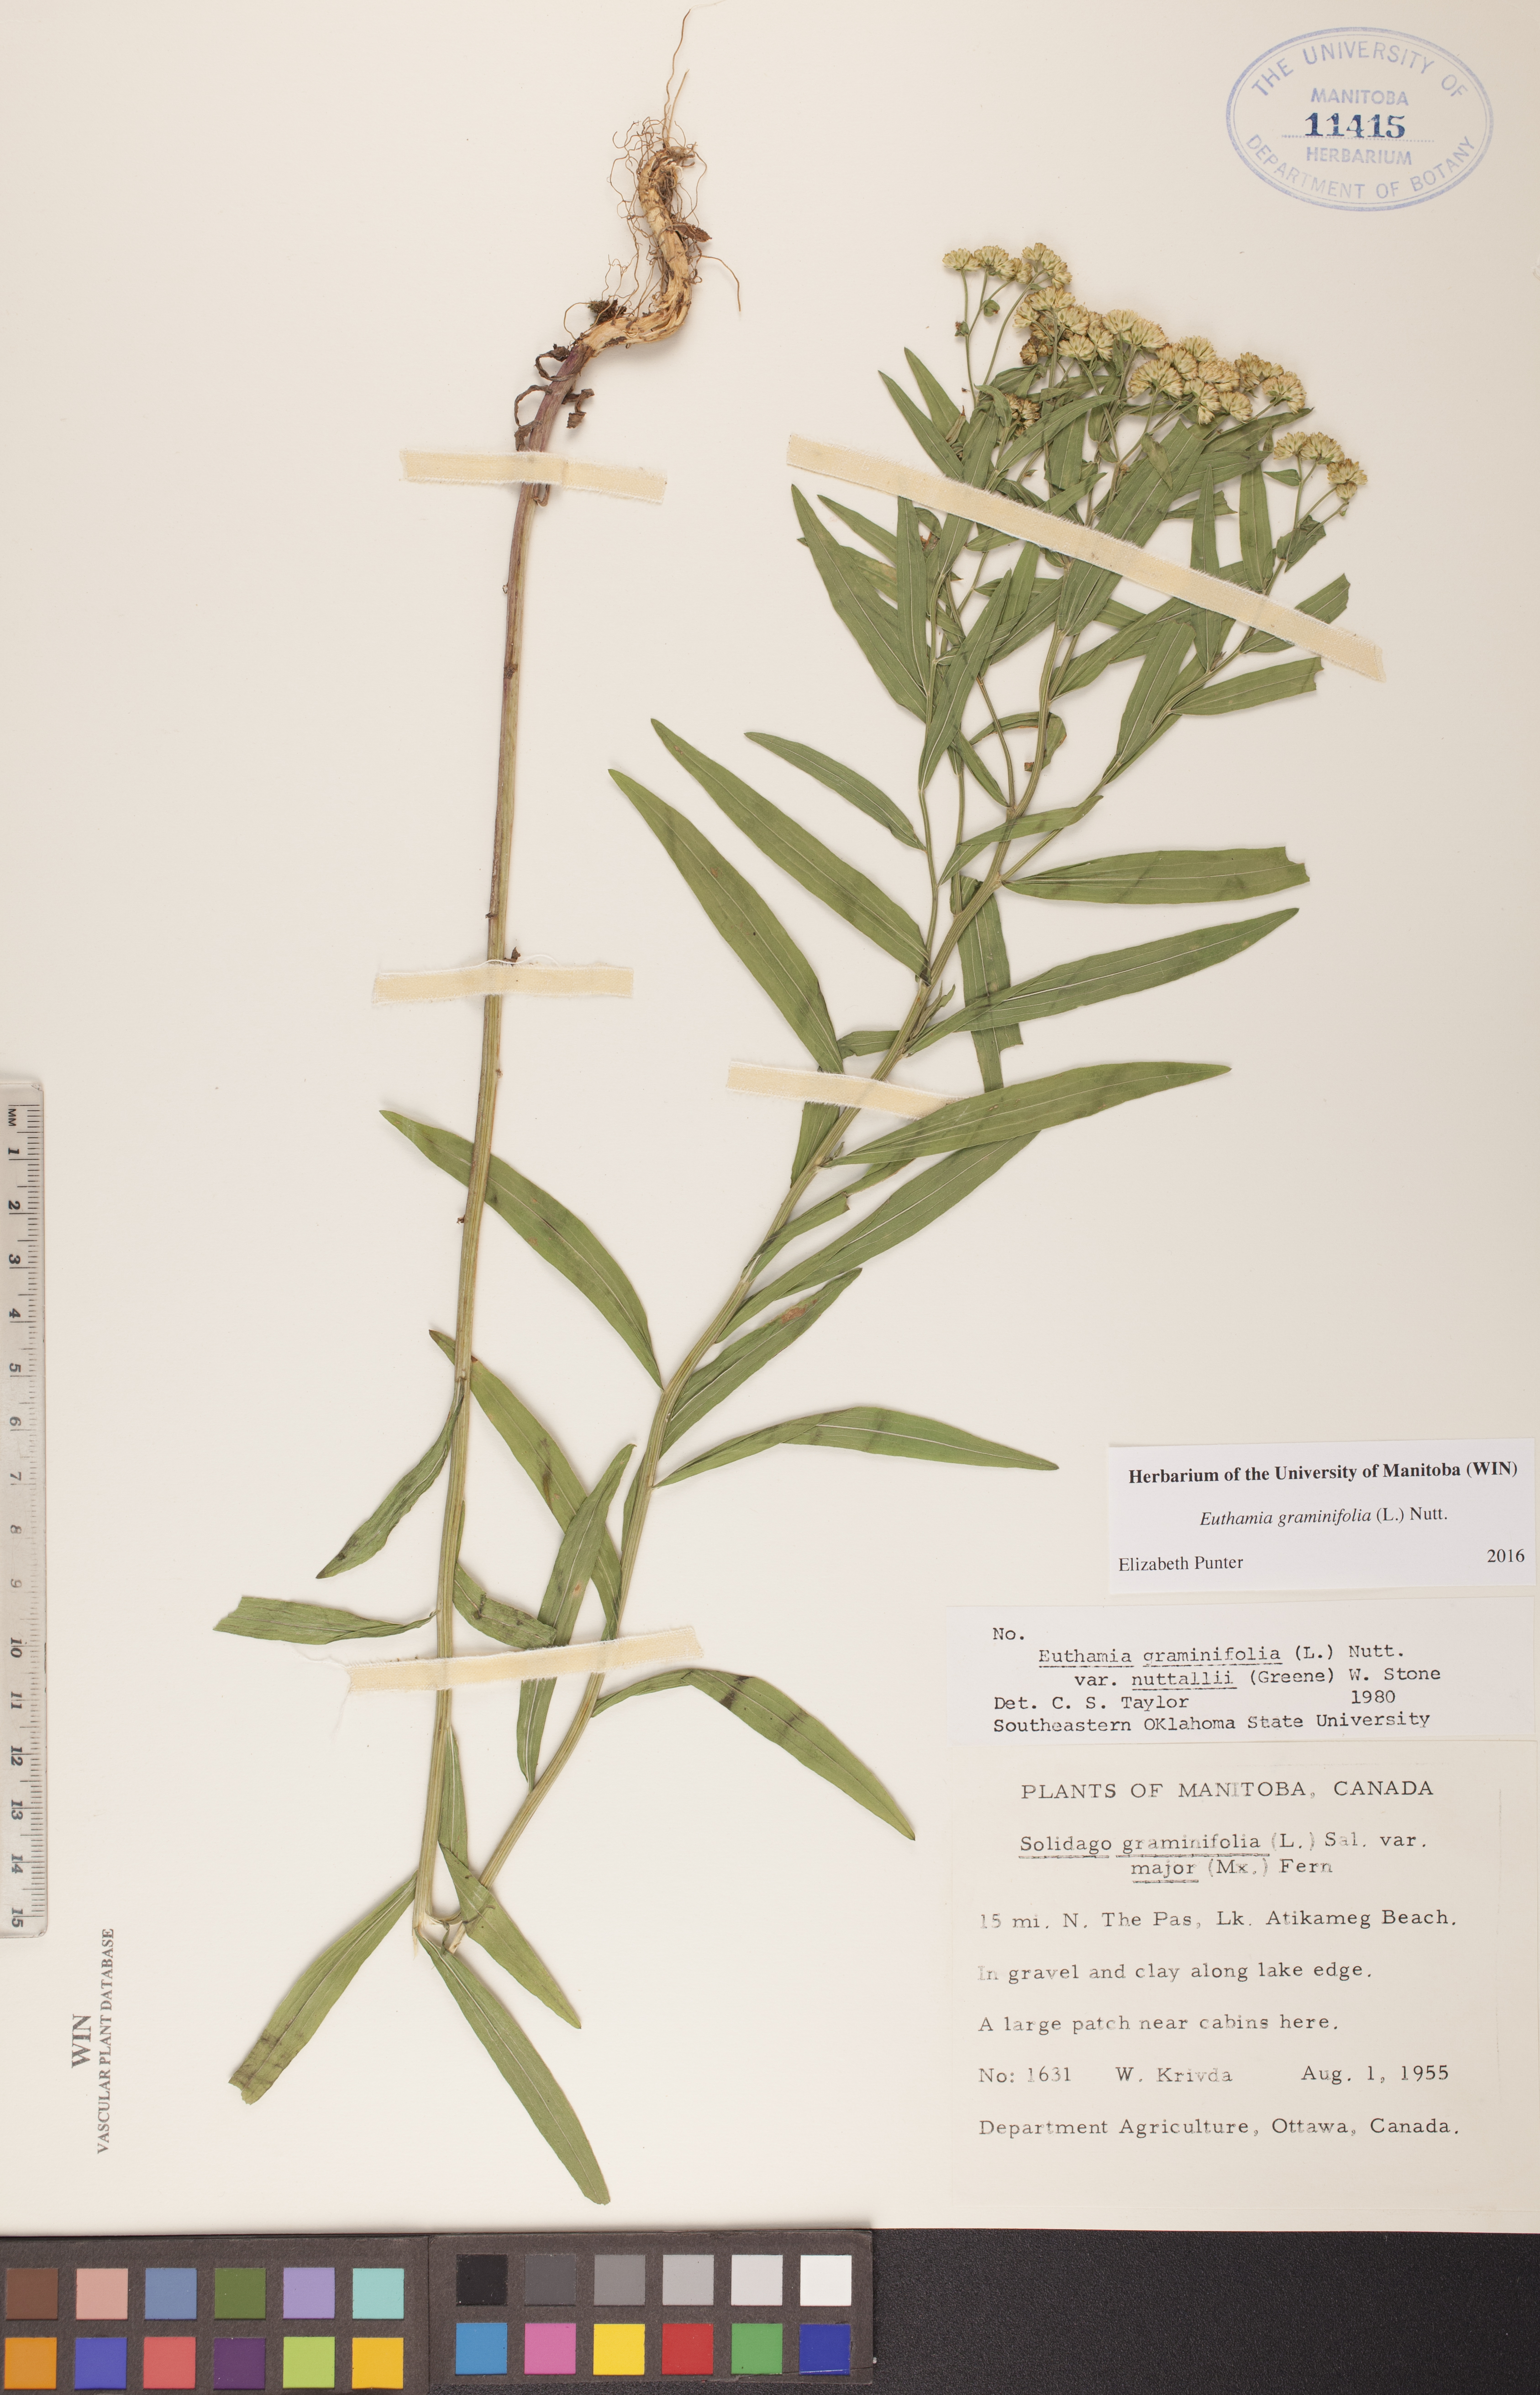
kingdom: Plantae
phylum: Tracheophyta
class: Magnoliopsida
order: Asterales
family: Asteraceae
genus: Euthamia
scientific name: Euthamia graminifolia
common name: Common goldentop
